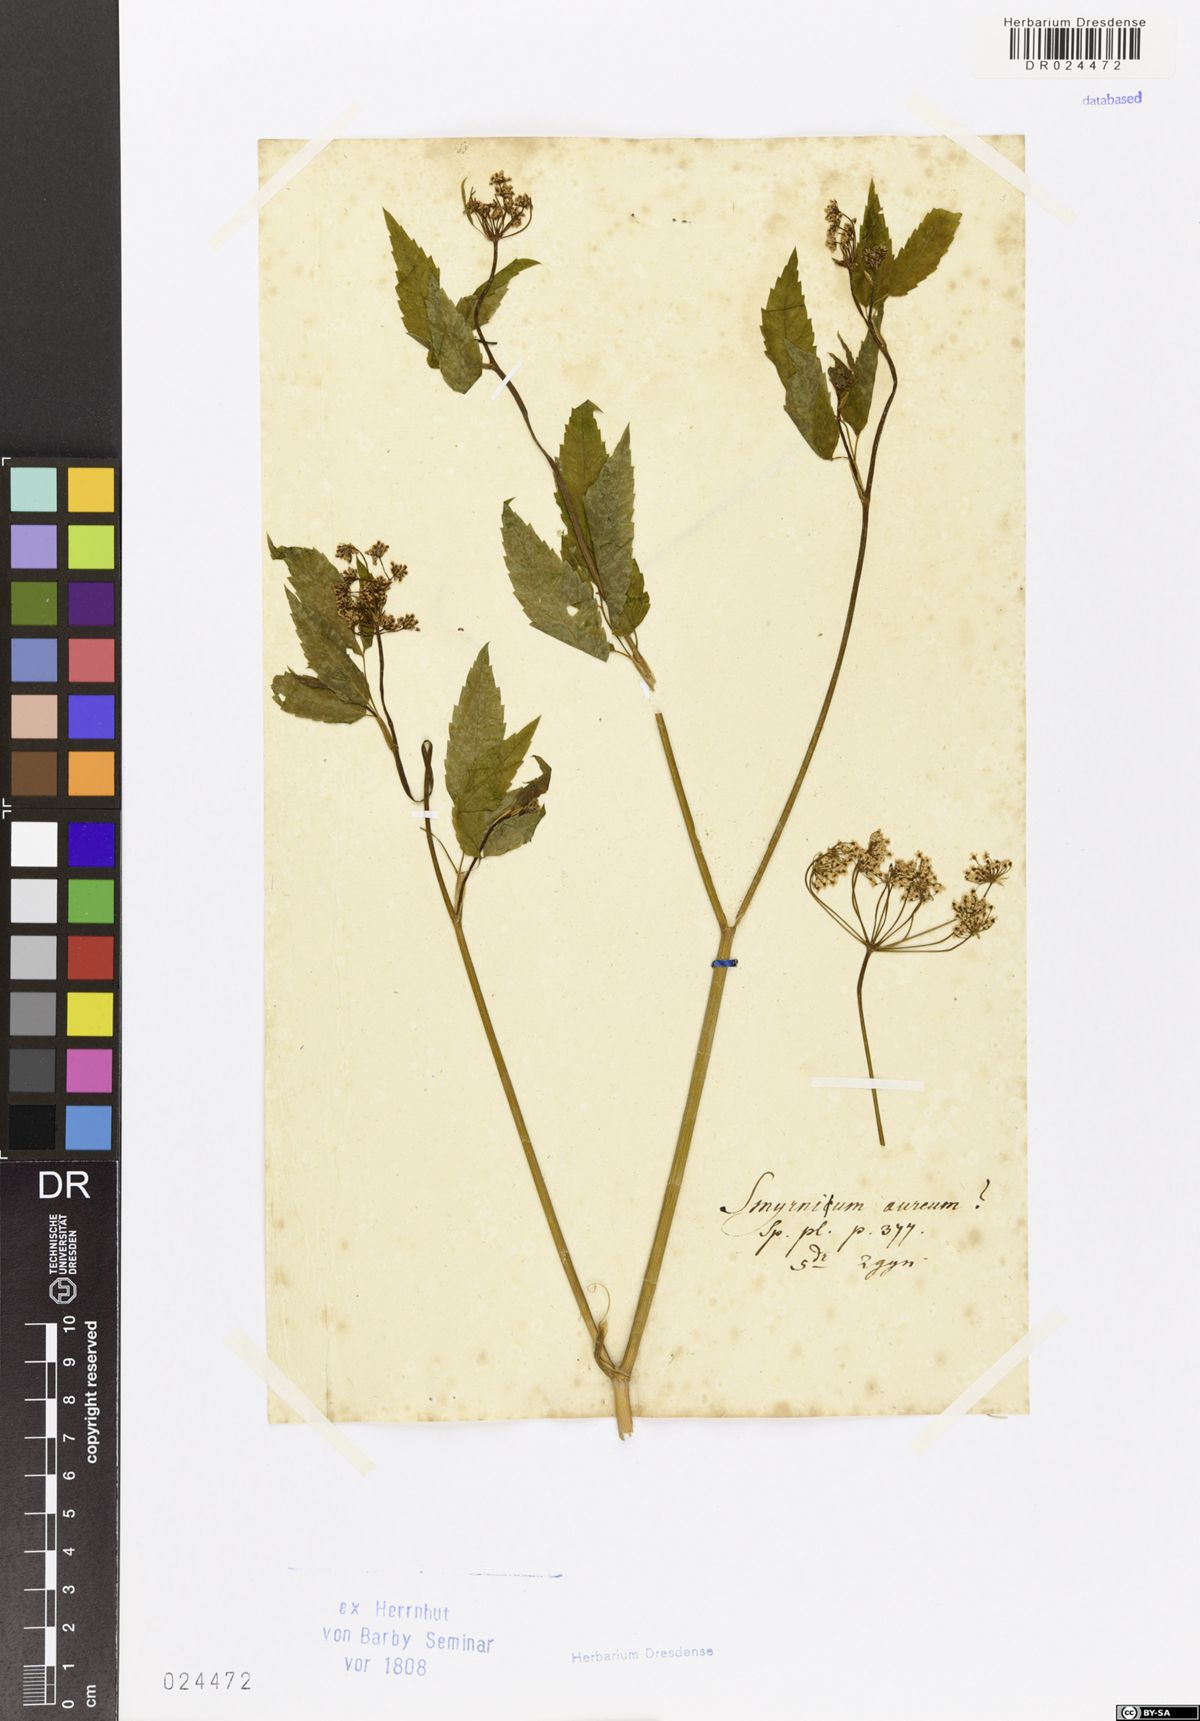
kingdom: Plantae
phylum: Tracheophyta
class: Magnoliopsida
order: Apiales
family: Apiaceae
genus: Zizia
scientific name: Zizia aurea
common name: Golden alexanders
